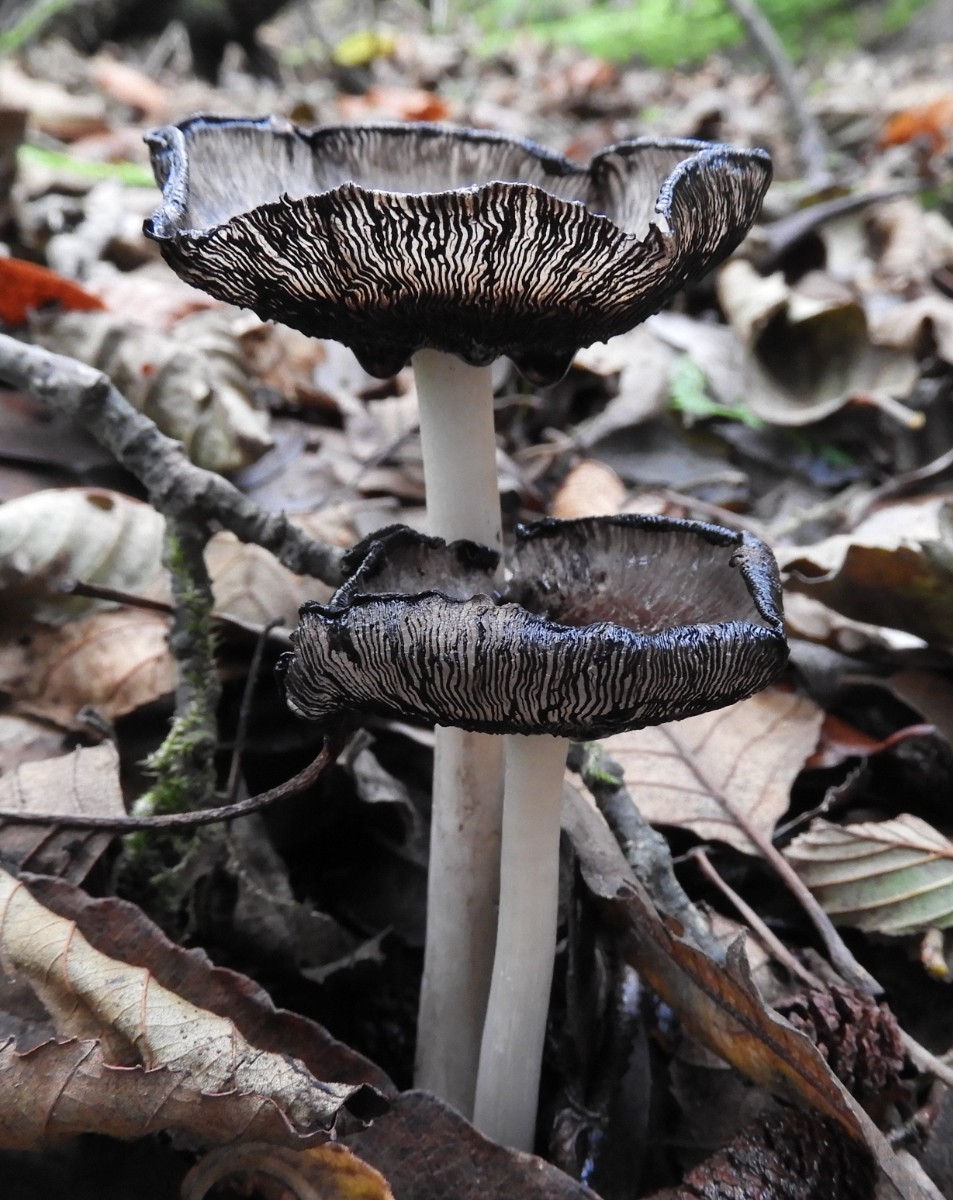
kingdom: Fungi
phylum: Basidiomycota
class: Agaricomycetes
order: Agaricales
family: Psathyrellaceae
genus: Coprinopsis
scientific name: Coprinopsis atramentaria
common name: almindelig blækhat
